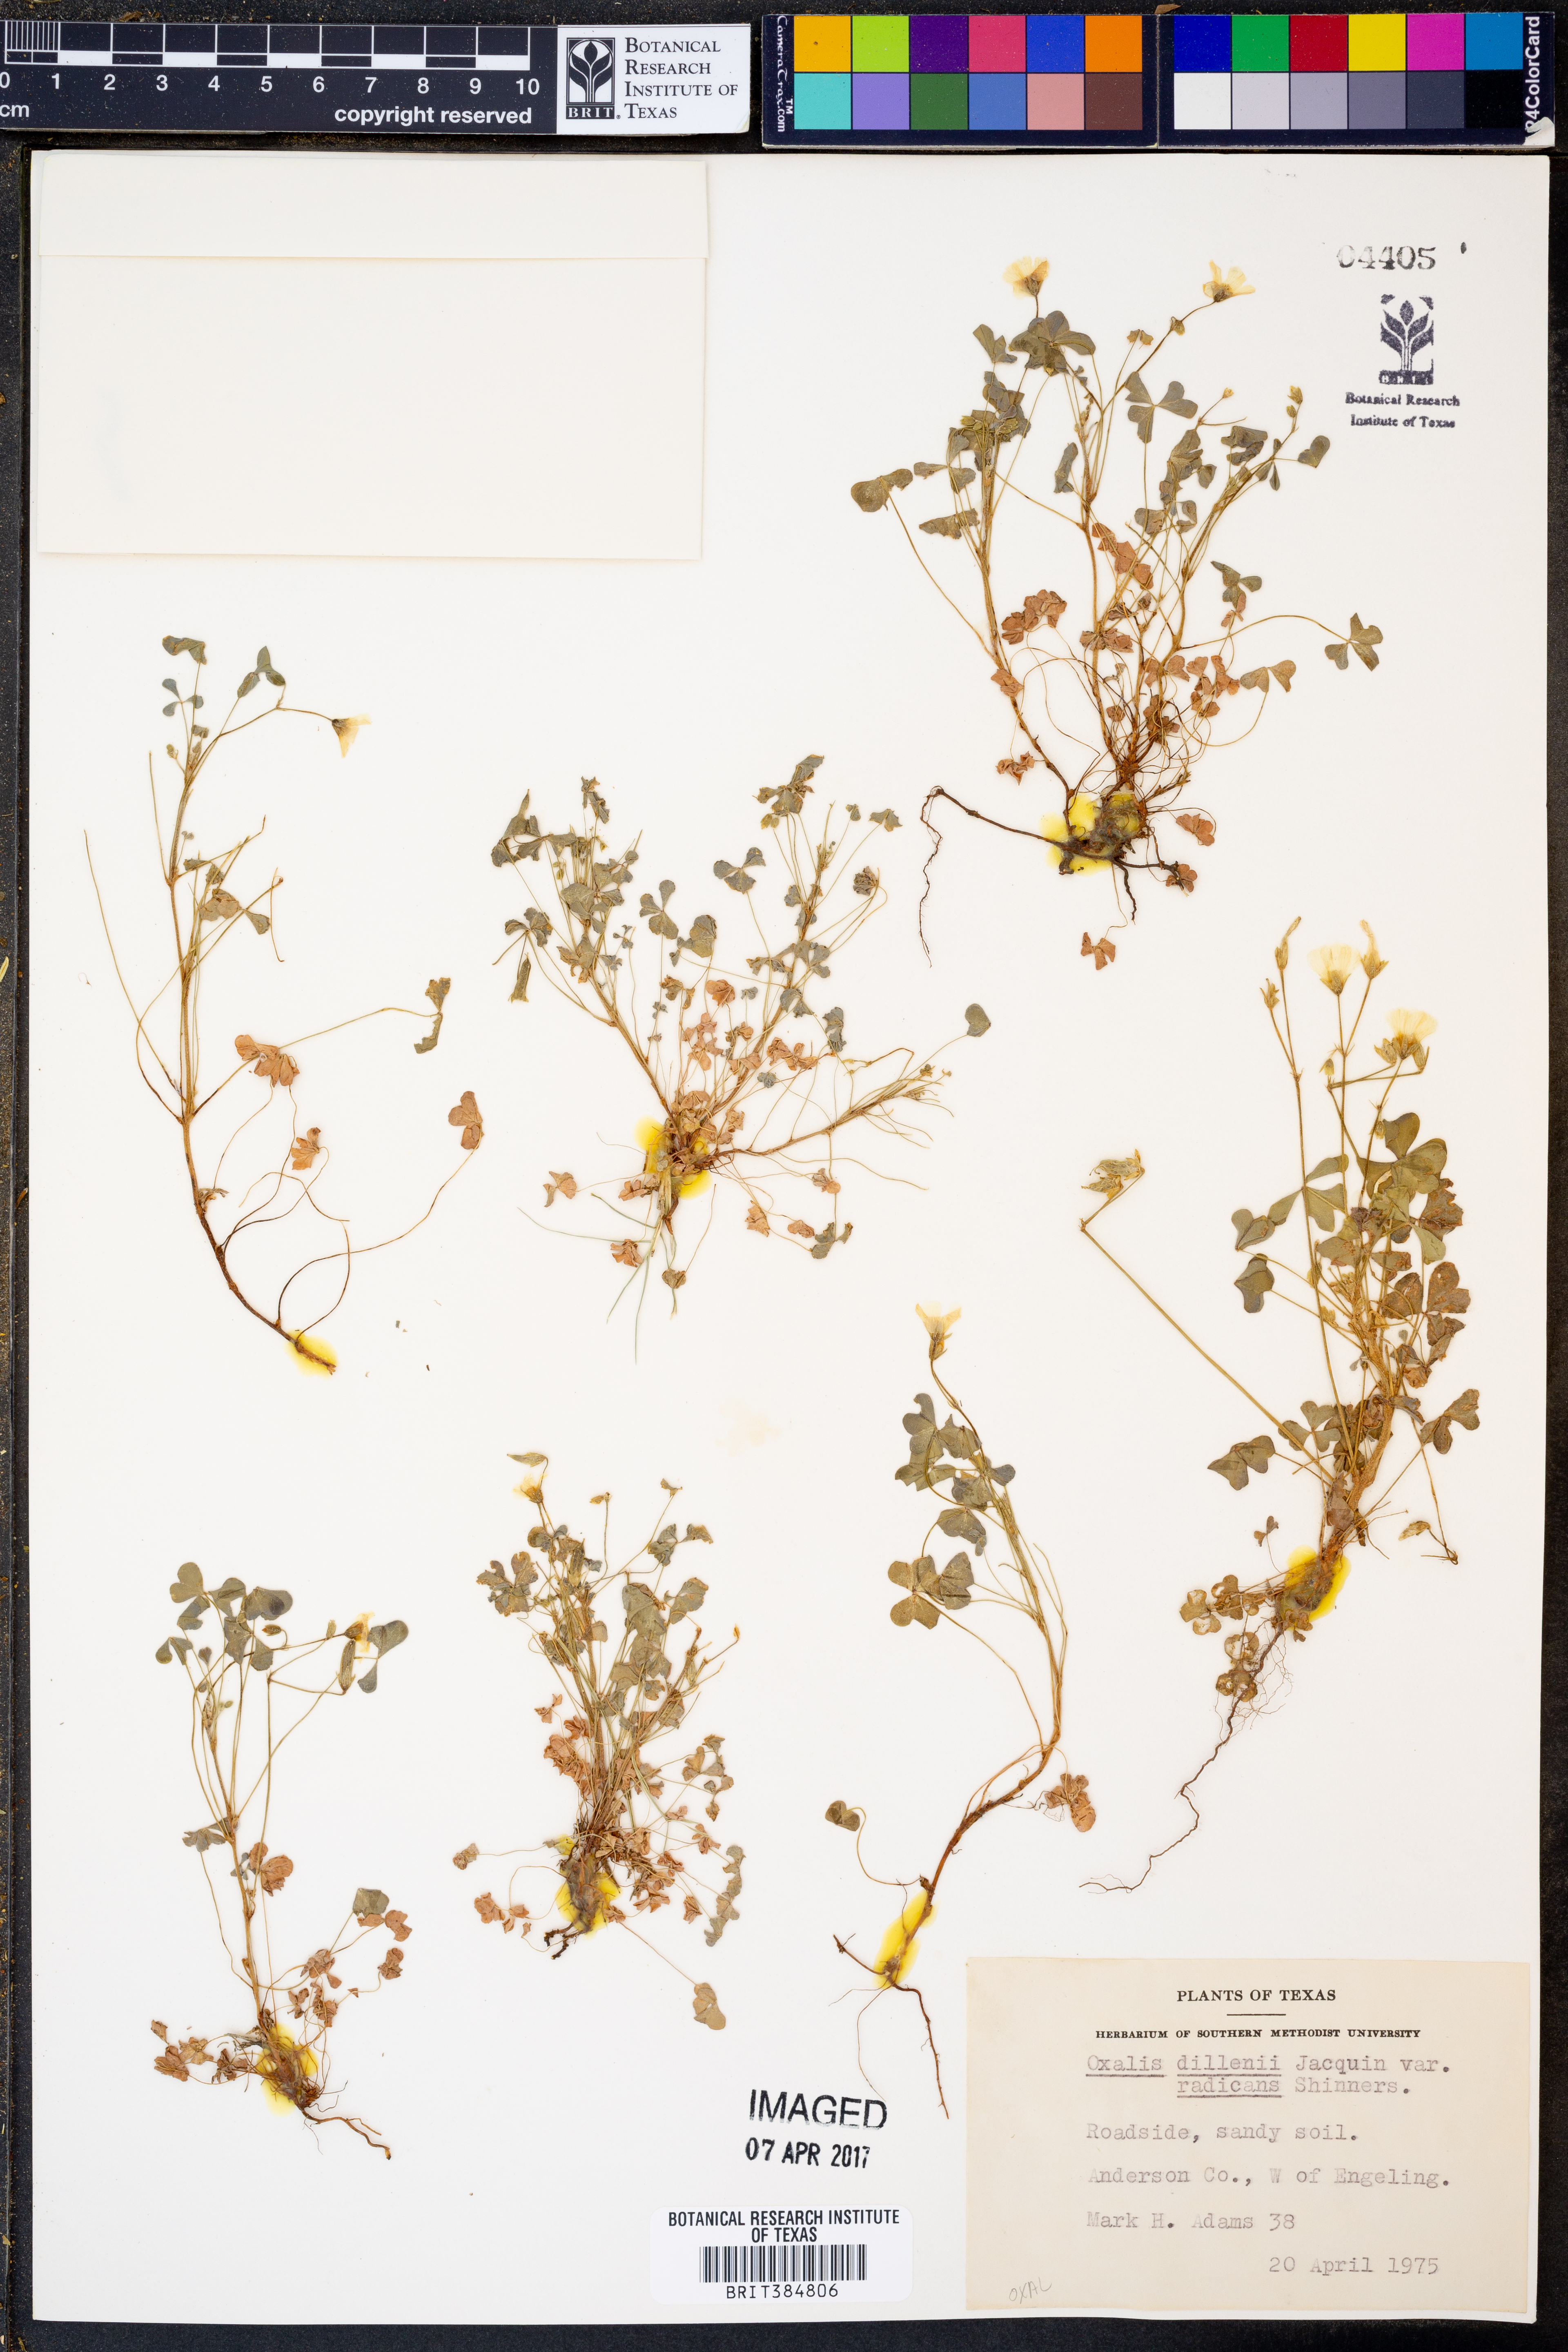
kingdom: Plantae
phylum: Tracheophyta
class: Magnoliopsida
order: Oxalidales
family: Oxalidaceae
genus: Oxalis
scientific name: Oxalis dillenii
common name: Sussex yellow-sorrel
